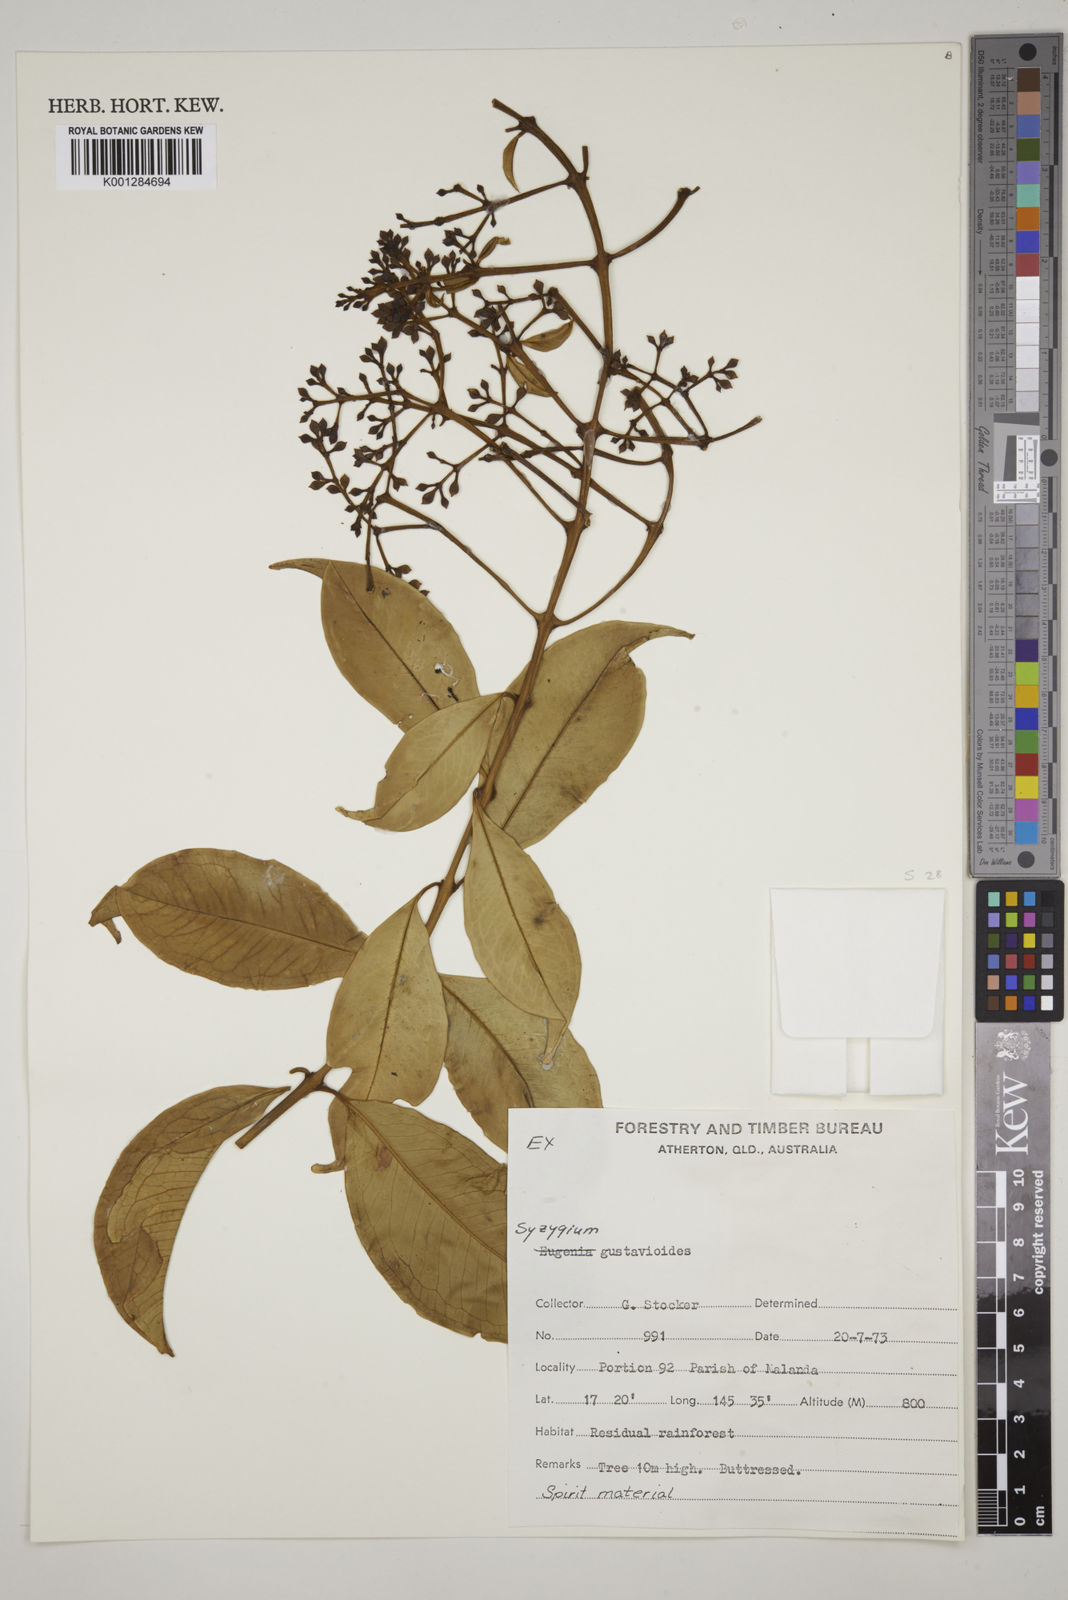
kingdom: Plantae
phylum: Tracheophyta
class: Magnoliopsida
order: Myrtales
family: Myrtaceae
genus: Syzygium
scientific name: Syzygium gustavioides
